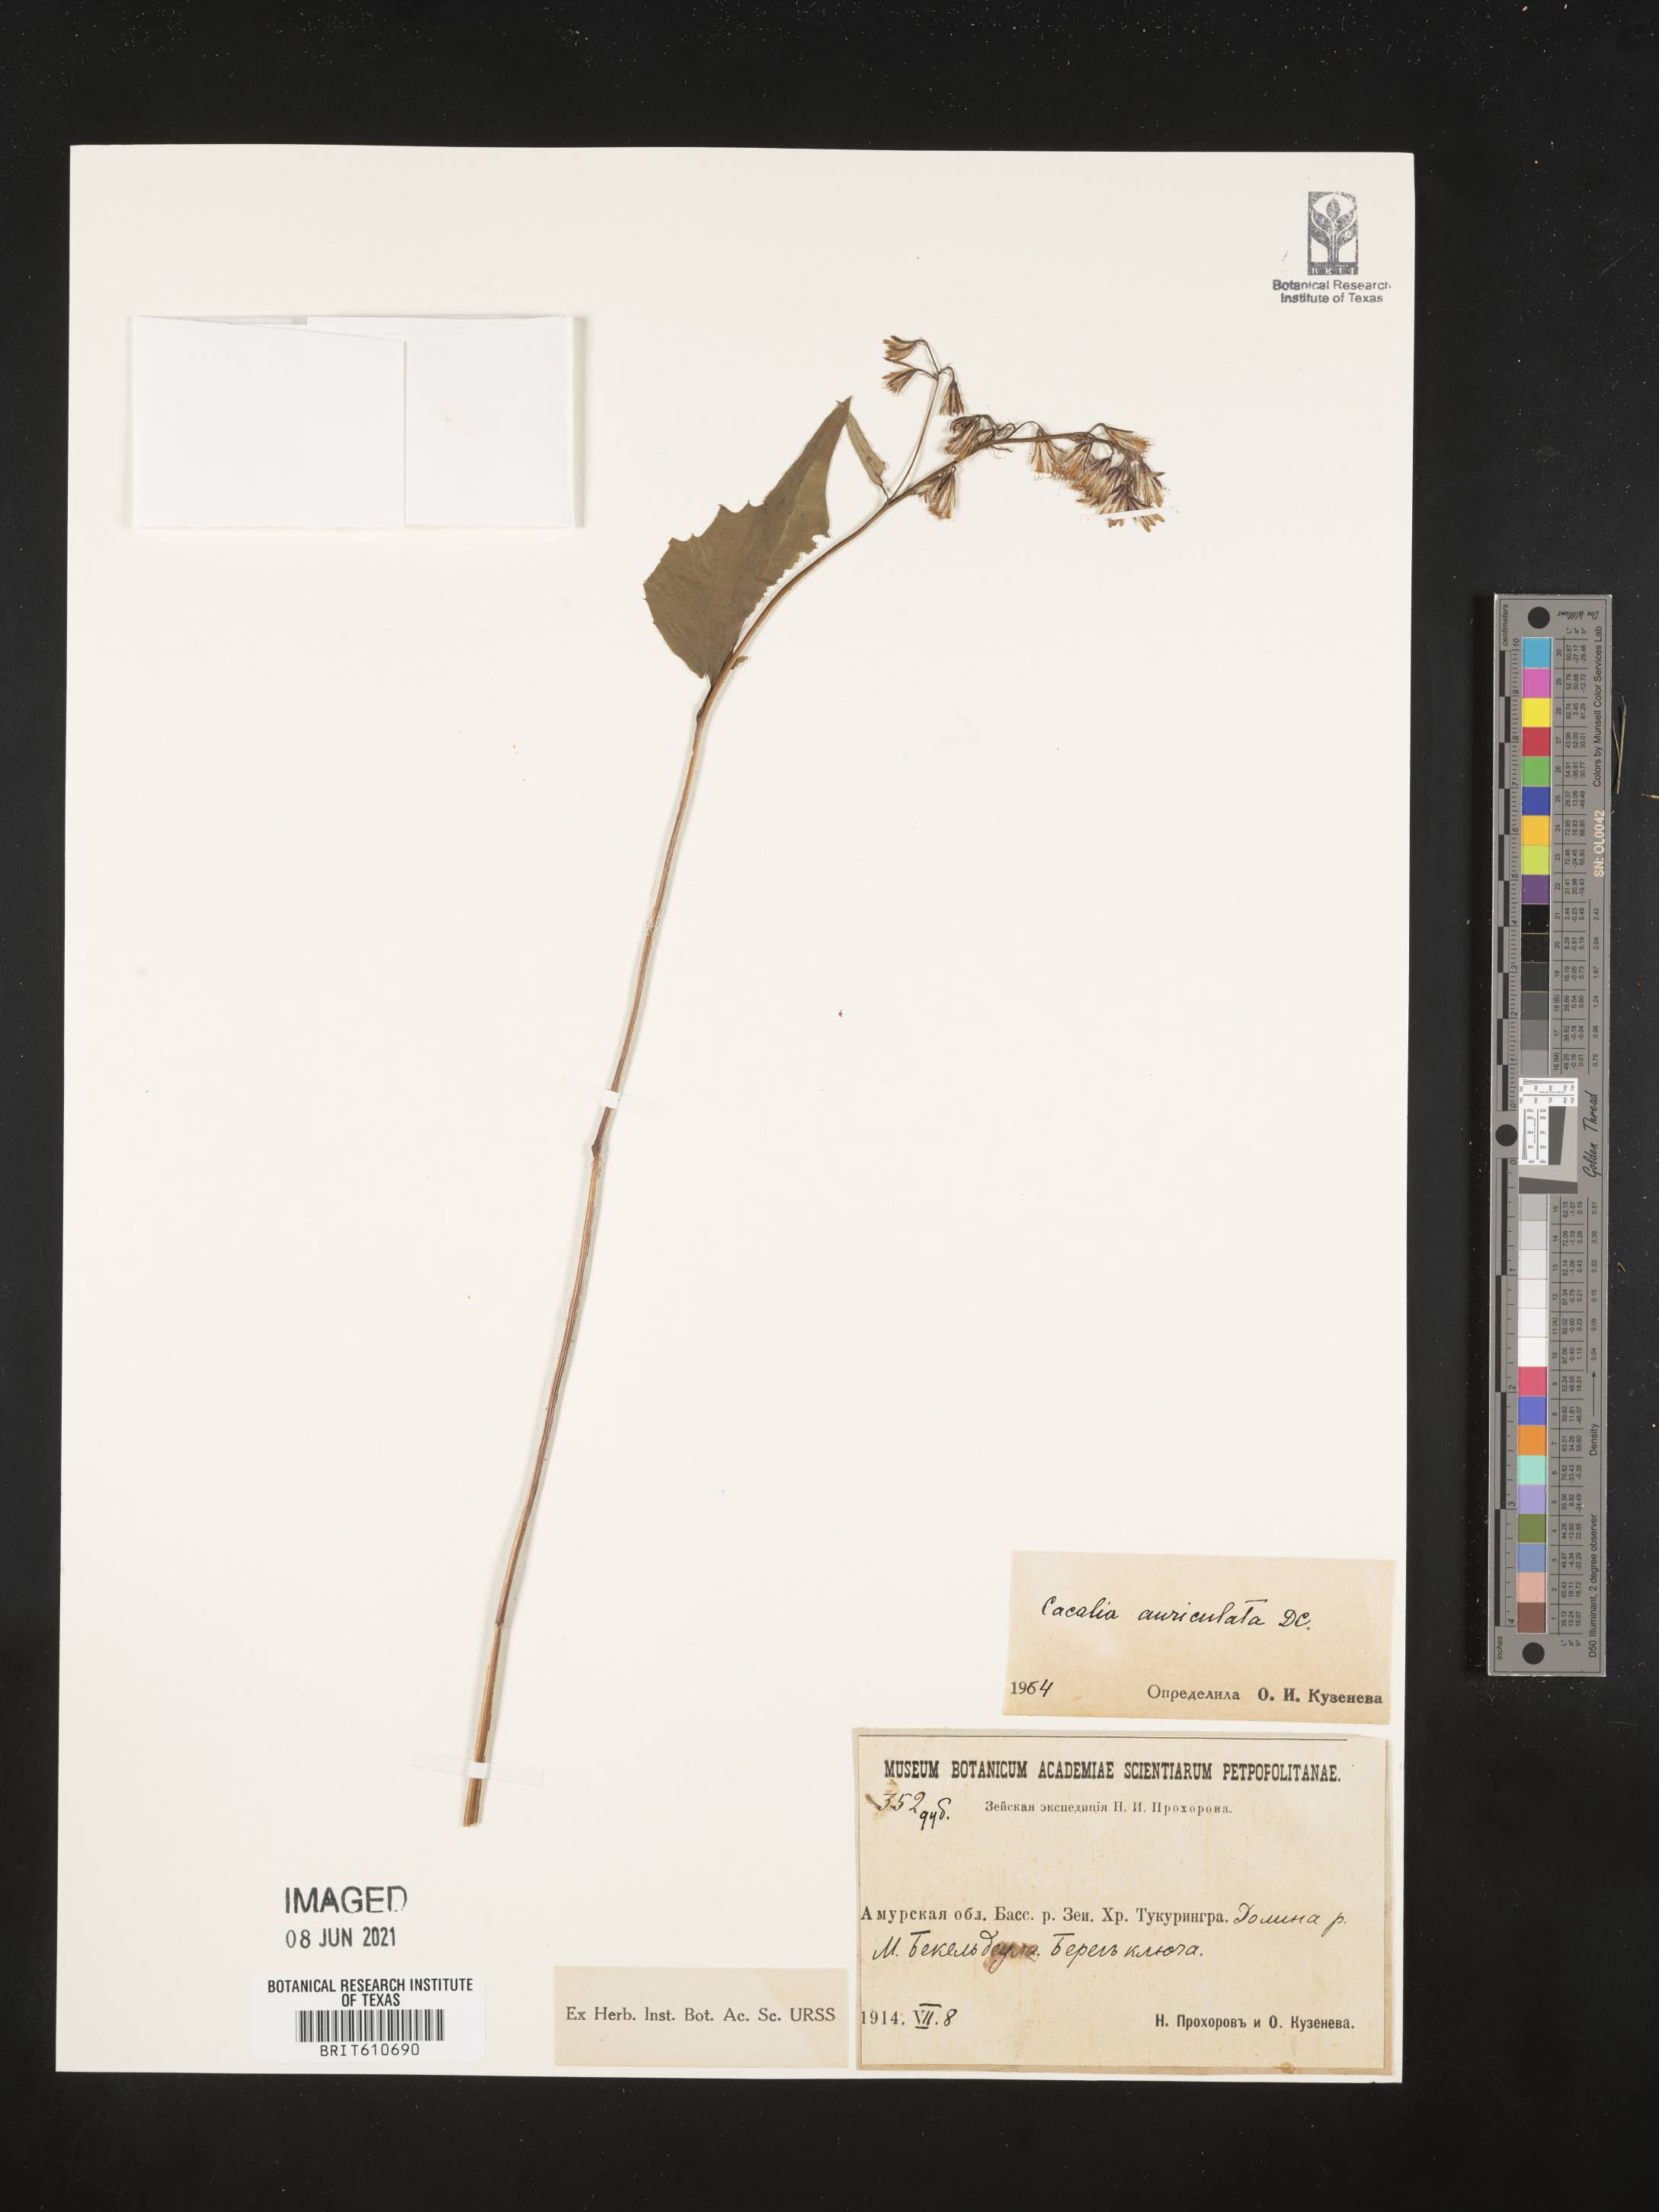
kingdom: Plantae
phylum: Tracheophyta
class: Magnoliopsida
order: Asterales
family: Asteraceae
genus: Parasenecio
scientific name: Parasenecio auriculata
